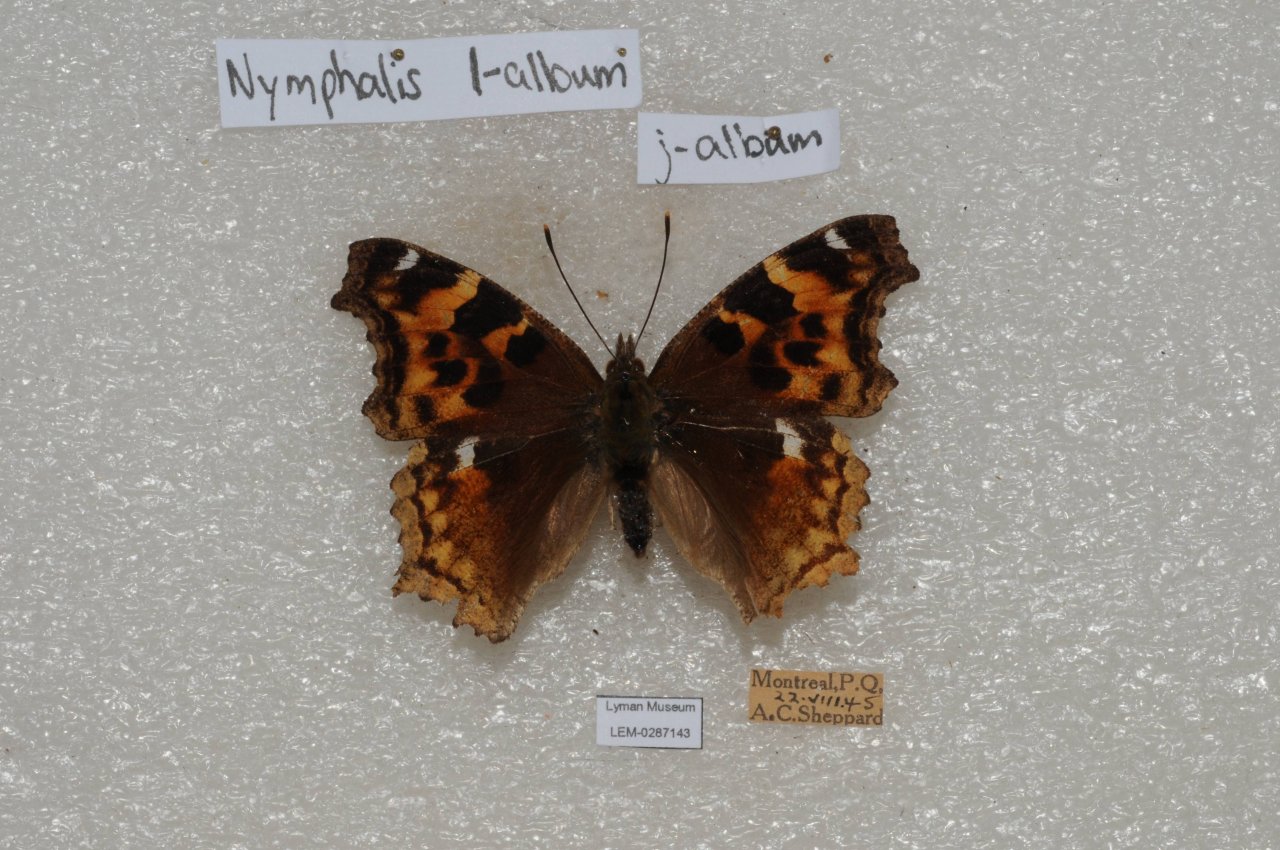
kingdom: Animalia
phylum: Arthropoda
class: Insecta
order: Lepidoptera
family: Nymphalidae
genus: Polygonia
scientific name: Polygonia vaualbum
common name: Compton Tortoiseshell
